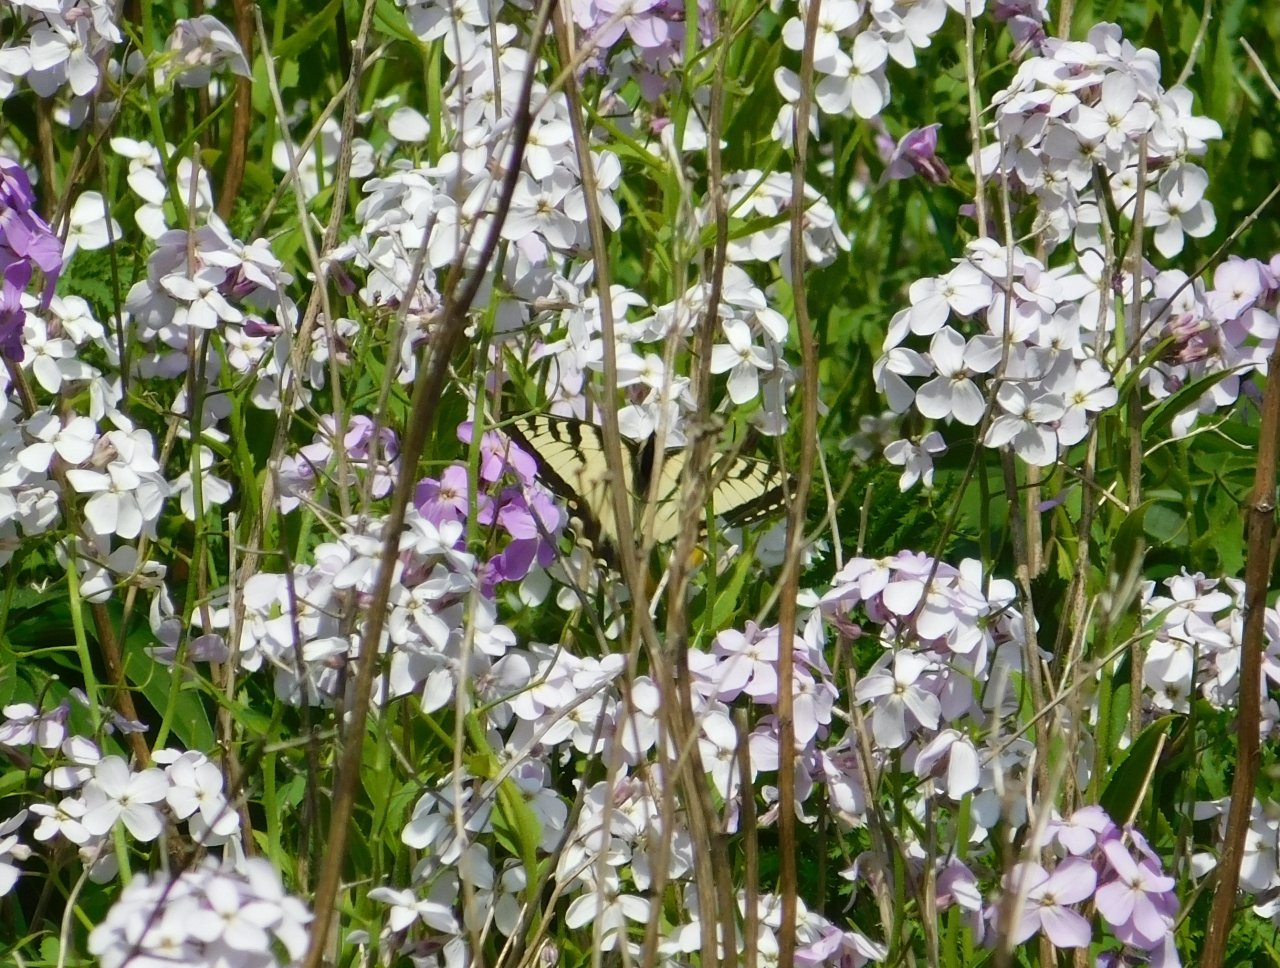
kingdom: Animalia
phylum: Arthropoda
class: Insecta
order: Lepidoptera
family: Papilionidae
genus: Pterourus
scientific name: Pterourus canadensis
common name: Canadian Tiger Swallowtail
